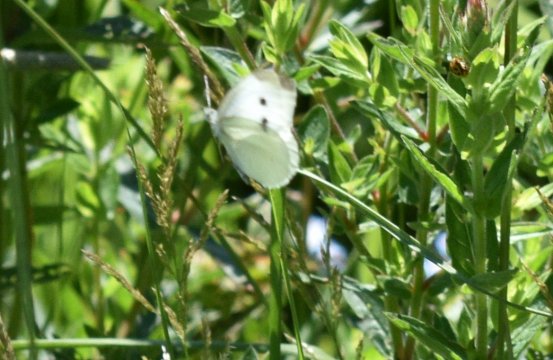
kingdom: Animalia
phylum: Arthropoda
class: Insecta
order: Lepidoptera
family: Pieridae
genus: Pieris
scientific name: Pieris rapae
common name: Cabbage White
